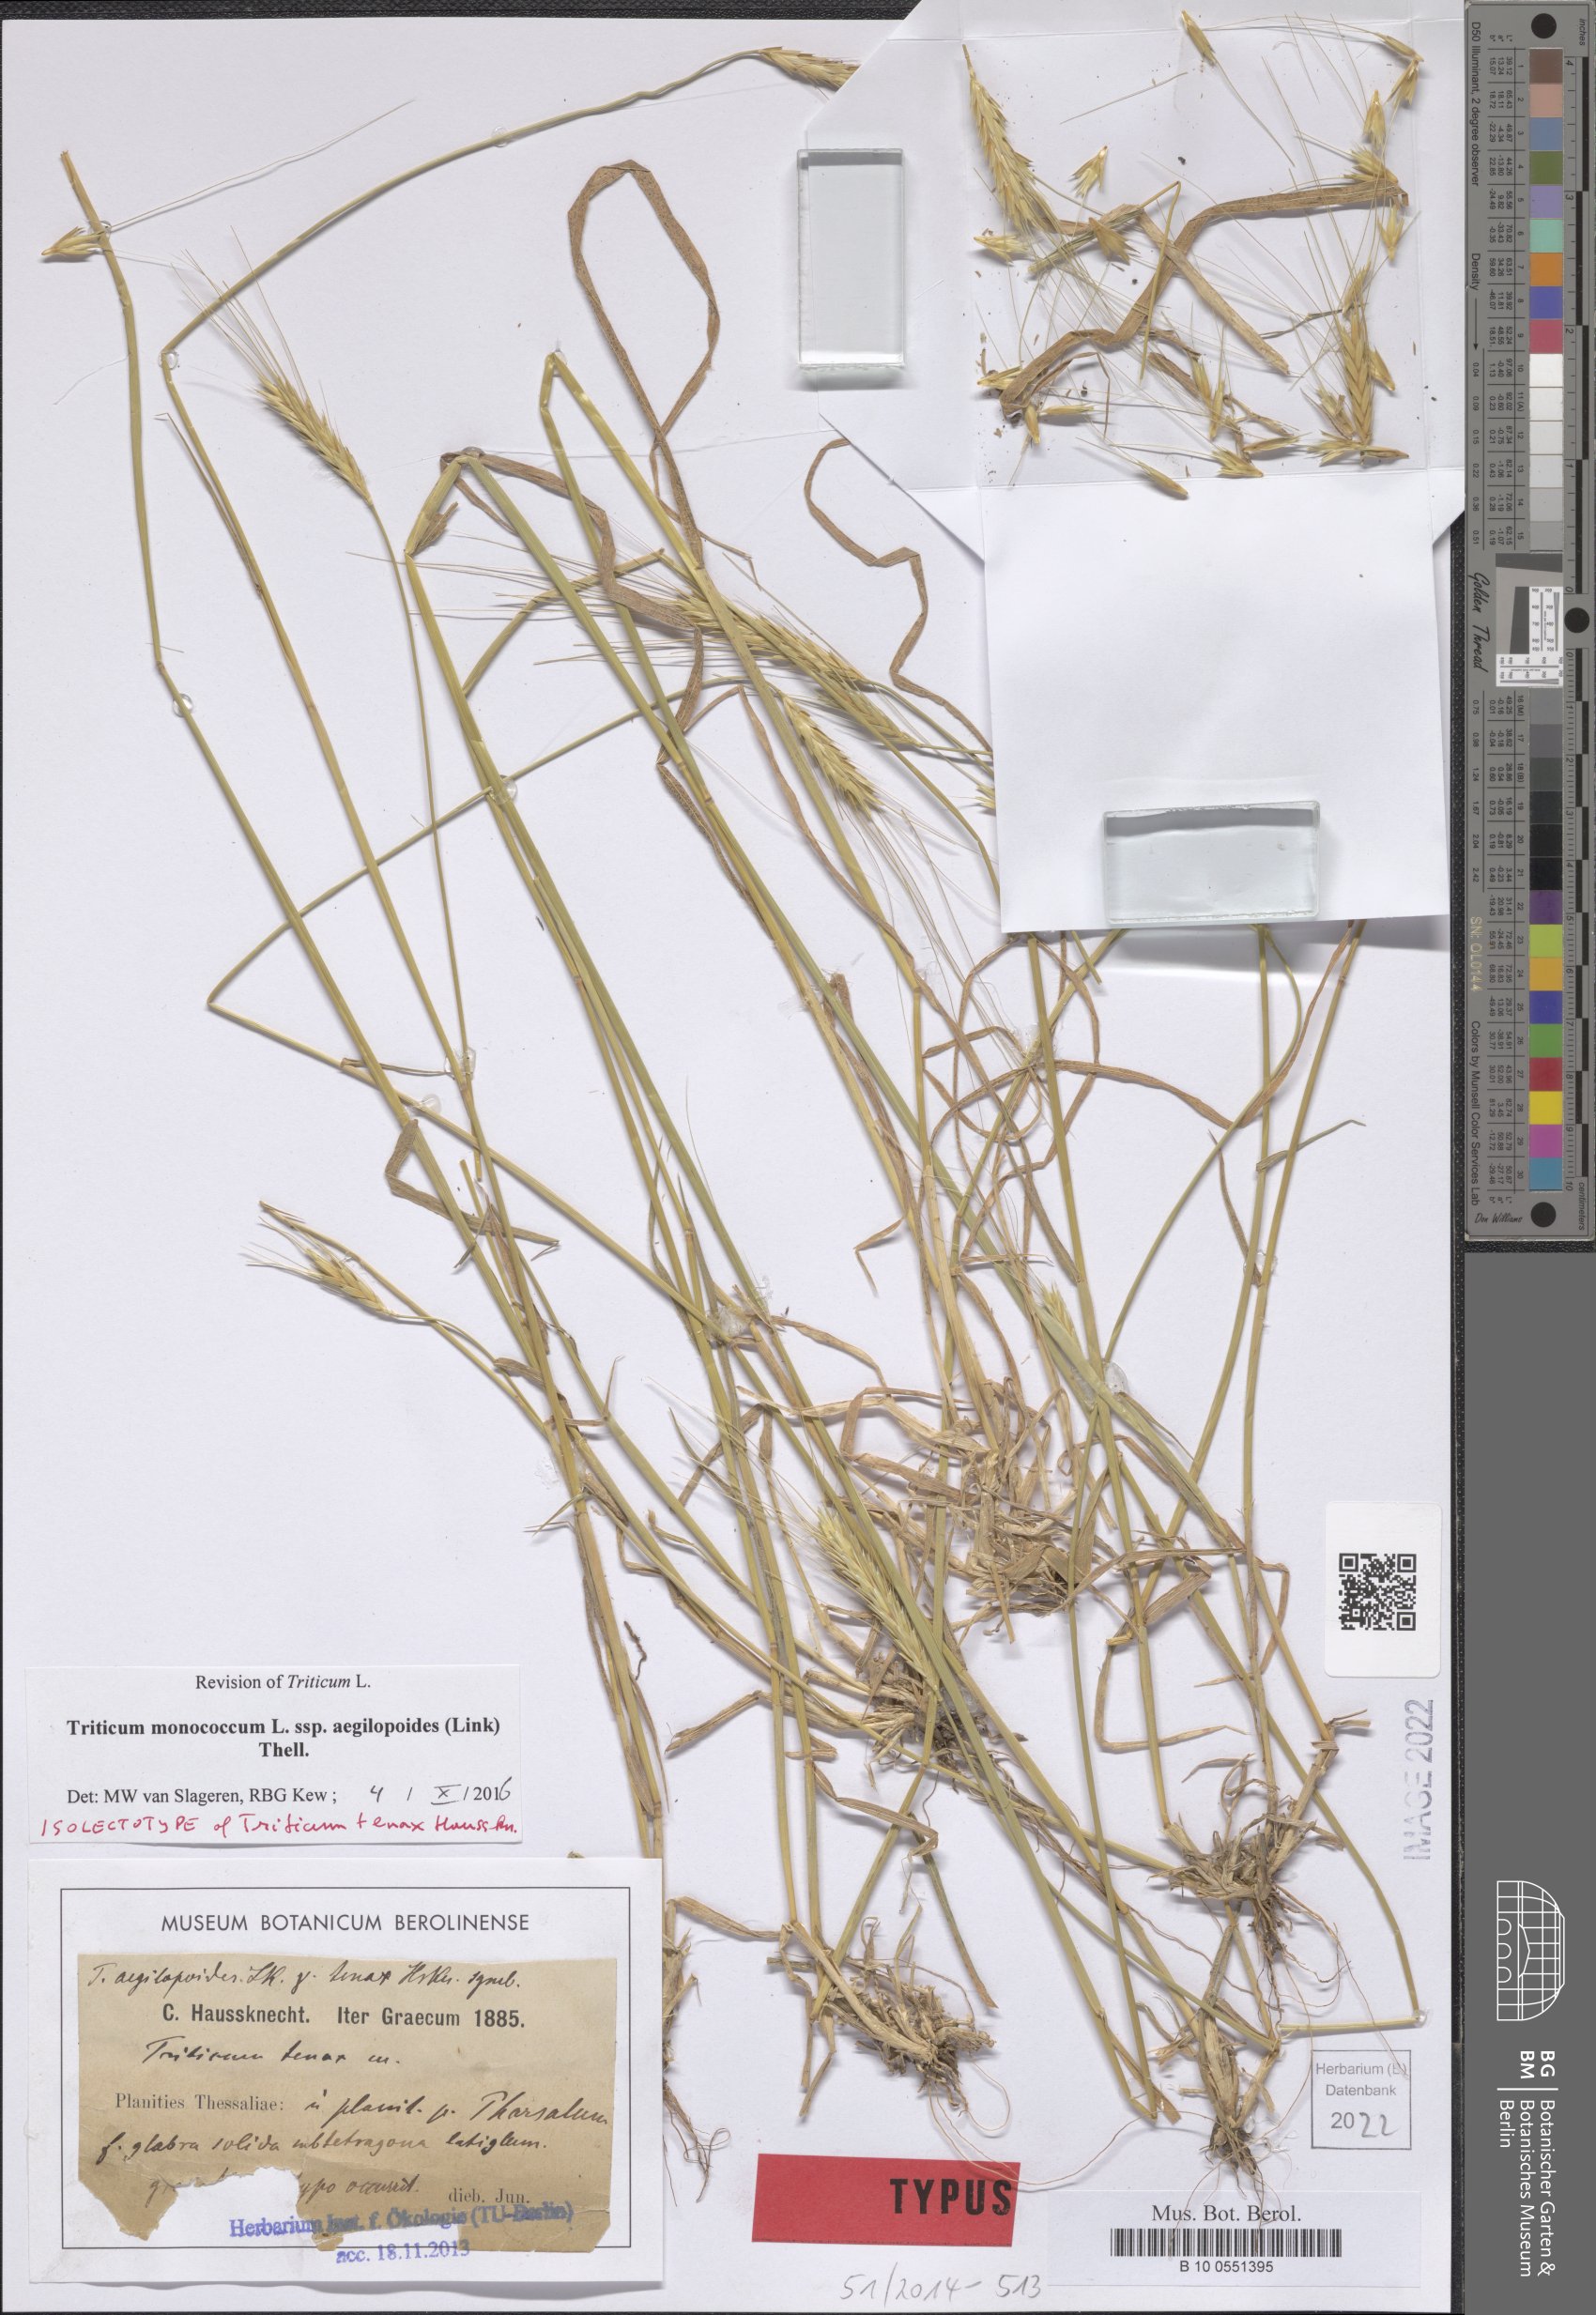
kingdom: Plantae
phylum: Tracheophyta
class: Liliopsida
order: Poales
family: Poaceae
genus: Triticum
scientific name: Triticum monococcum
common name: Einkorn
